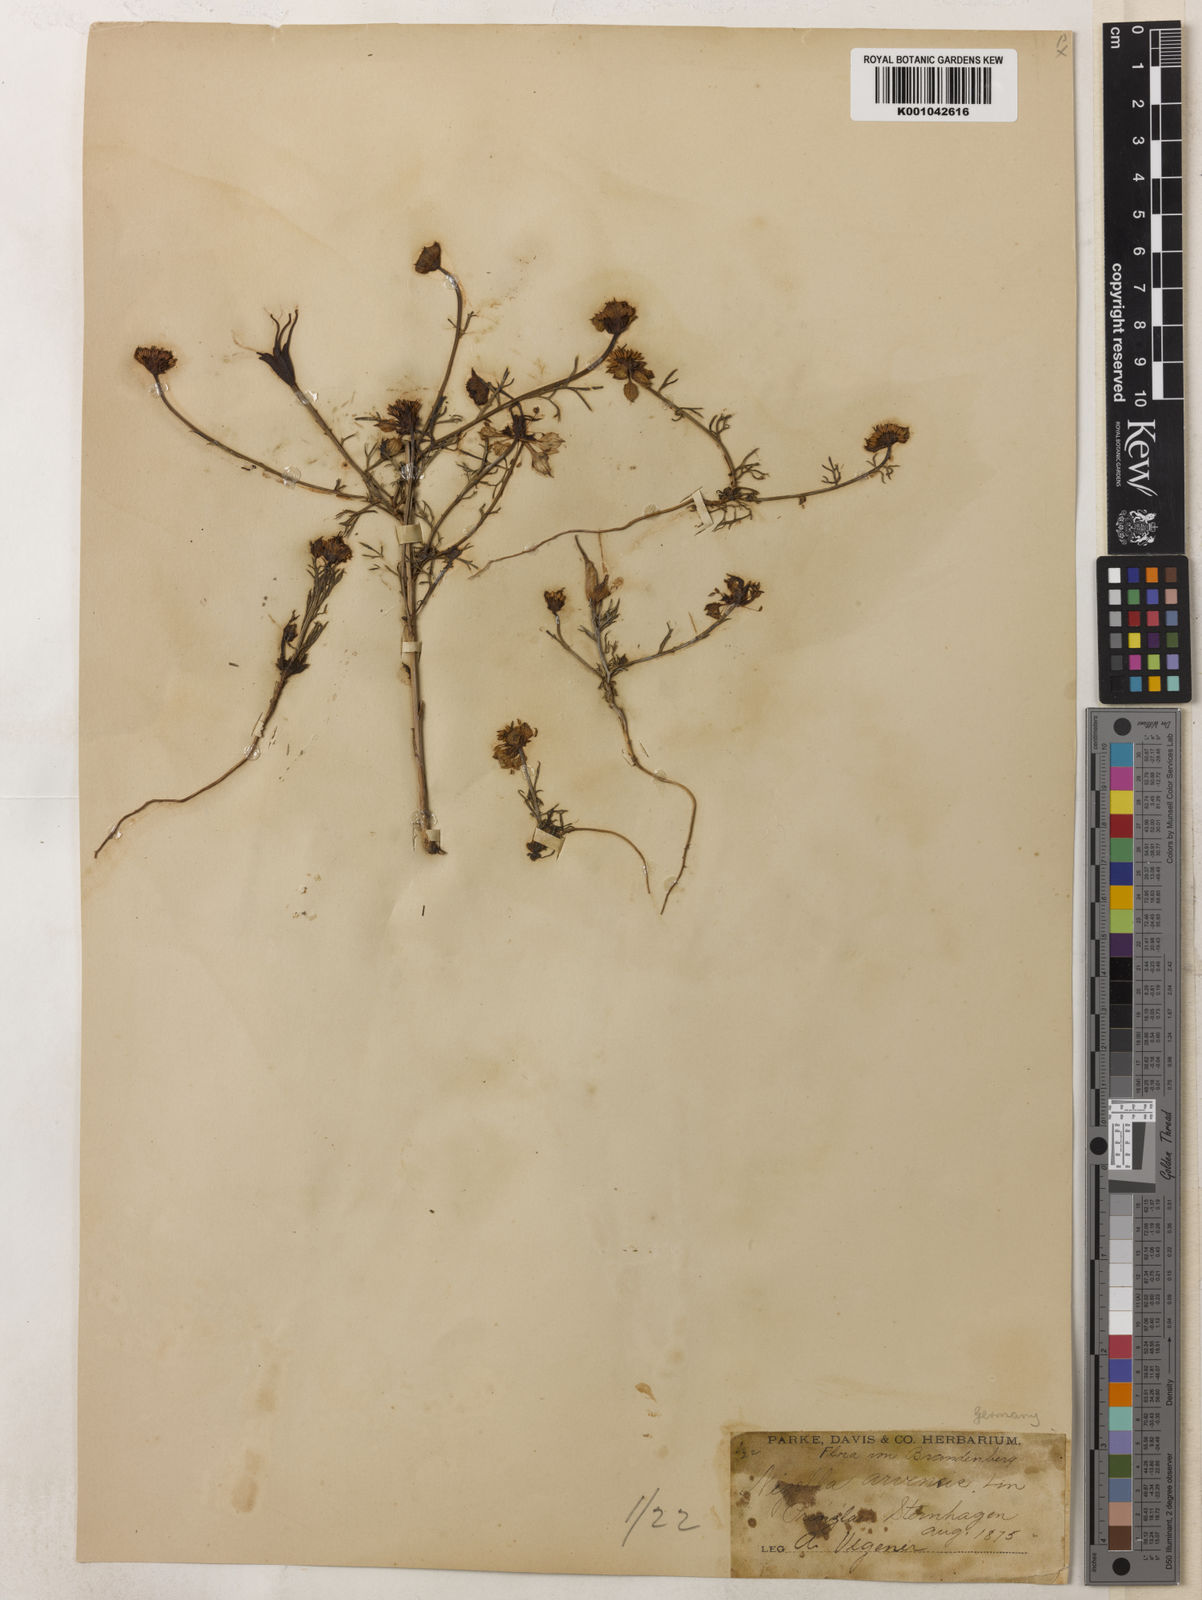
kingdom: Plantae
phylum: Tracheophyta
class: Magnoliopsida
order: Ranunculales
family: Ranunculaceae
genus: Nigella
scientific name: Nigella arvensis
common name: Wild fennel-flower
